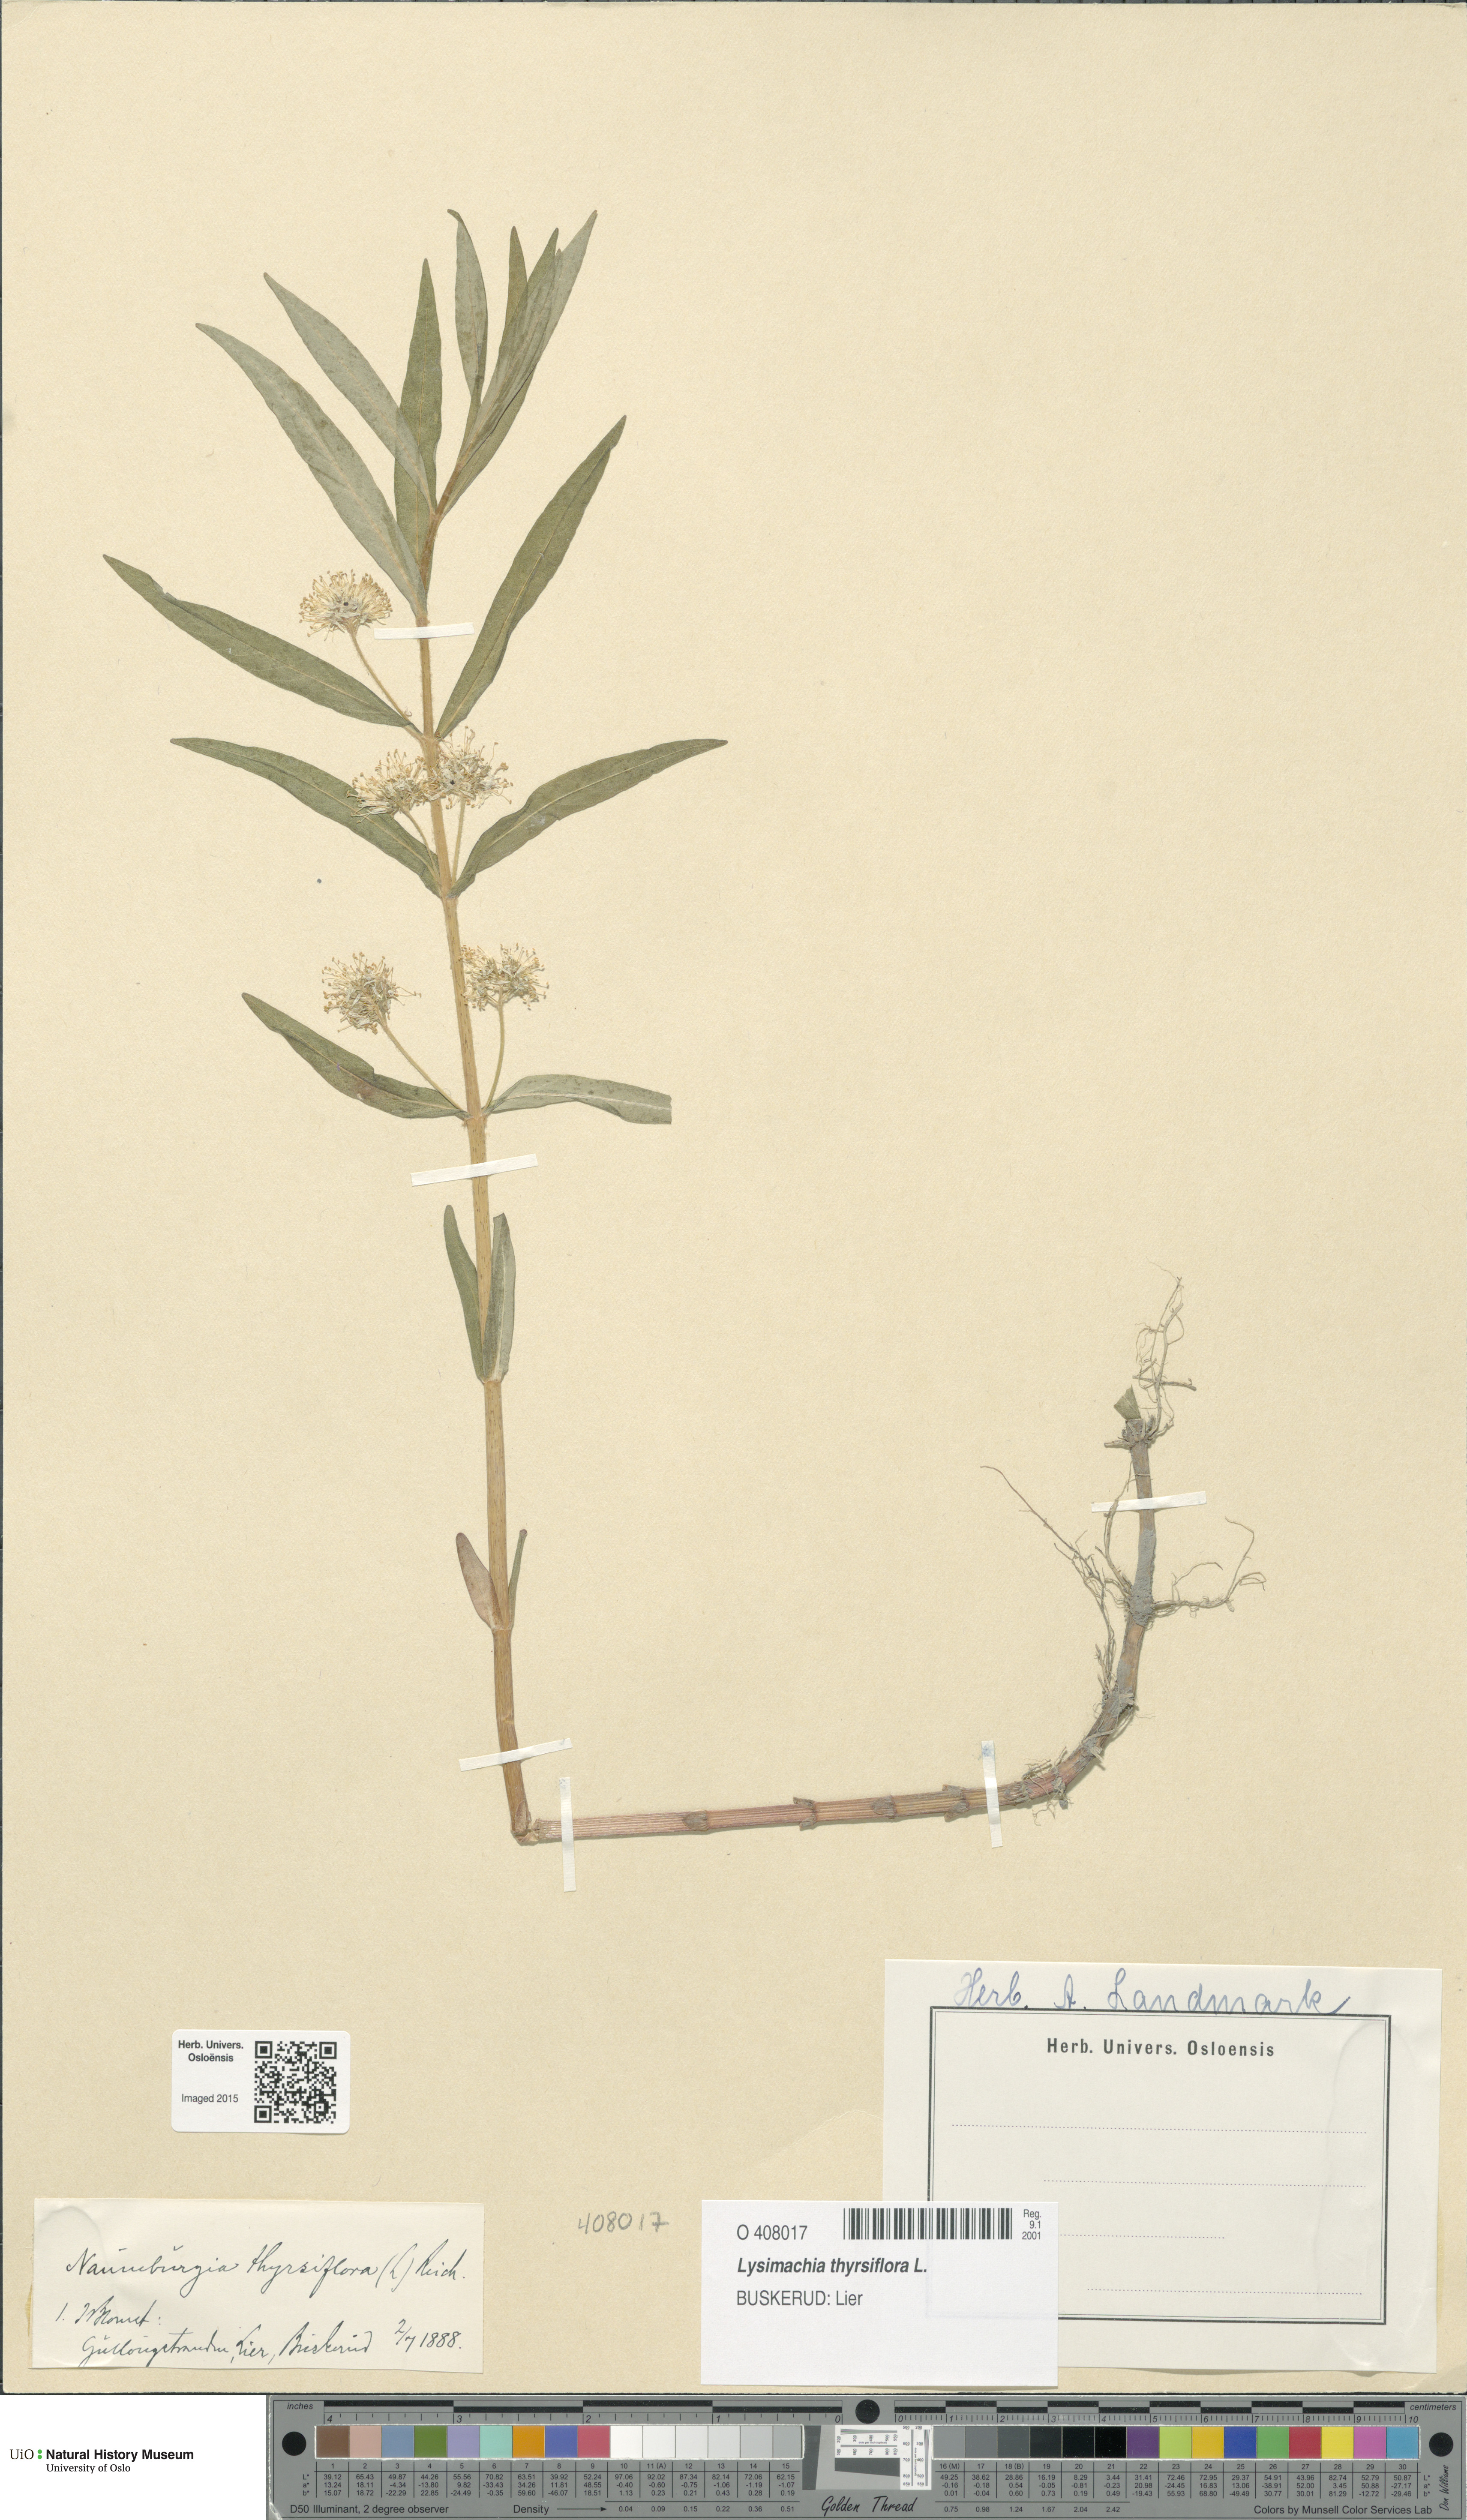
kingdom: Plantae
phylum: Tracheophyta
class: Magnoliopsida
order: Ericales
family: Primulaceae
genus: Lysimachia
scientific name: Lysimachia thyrsiflora
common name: Tufted loosestrife
